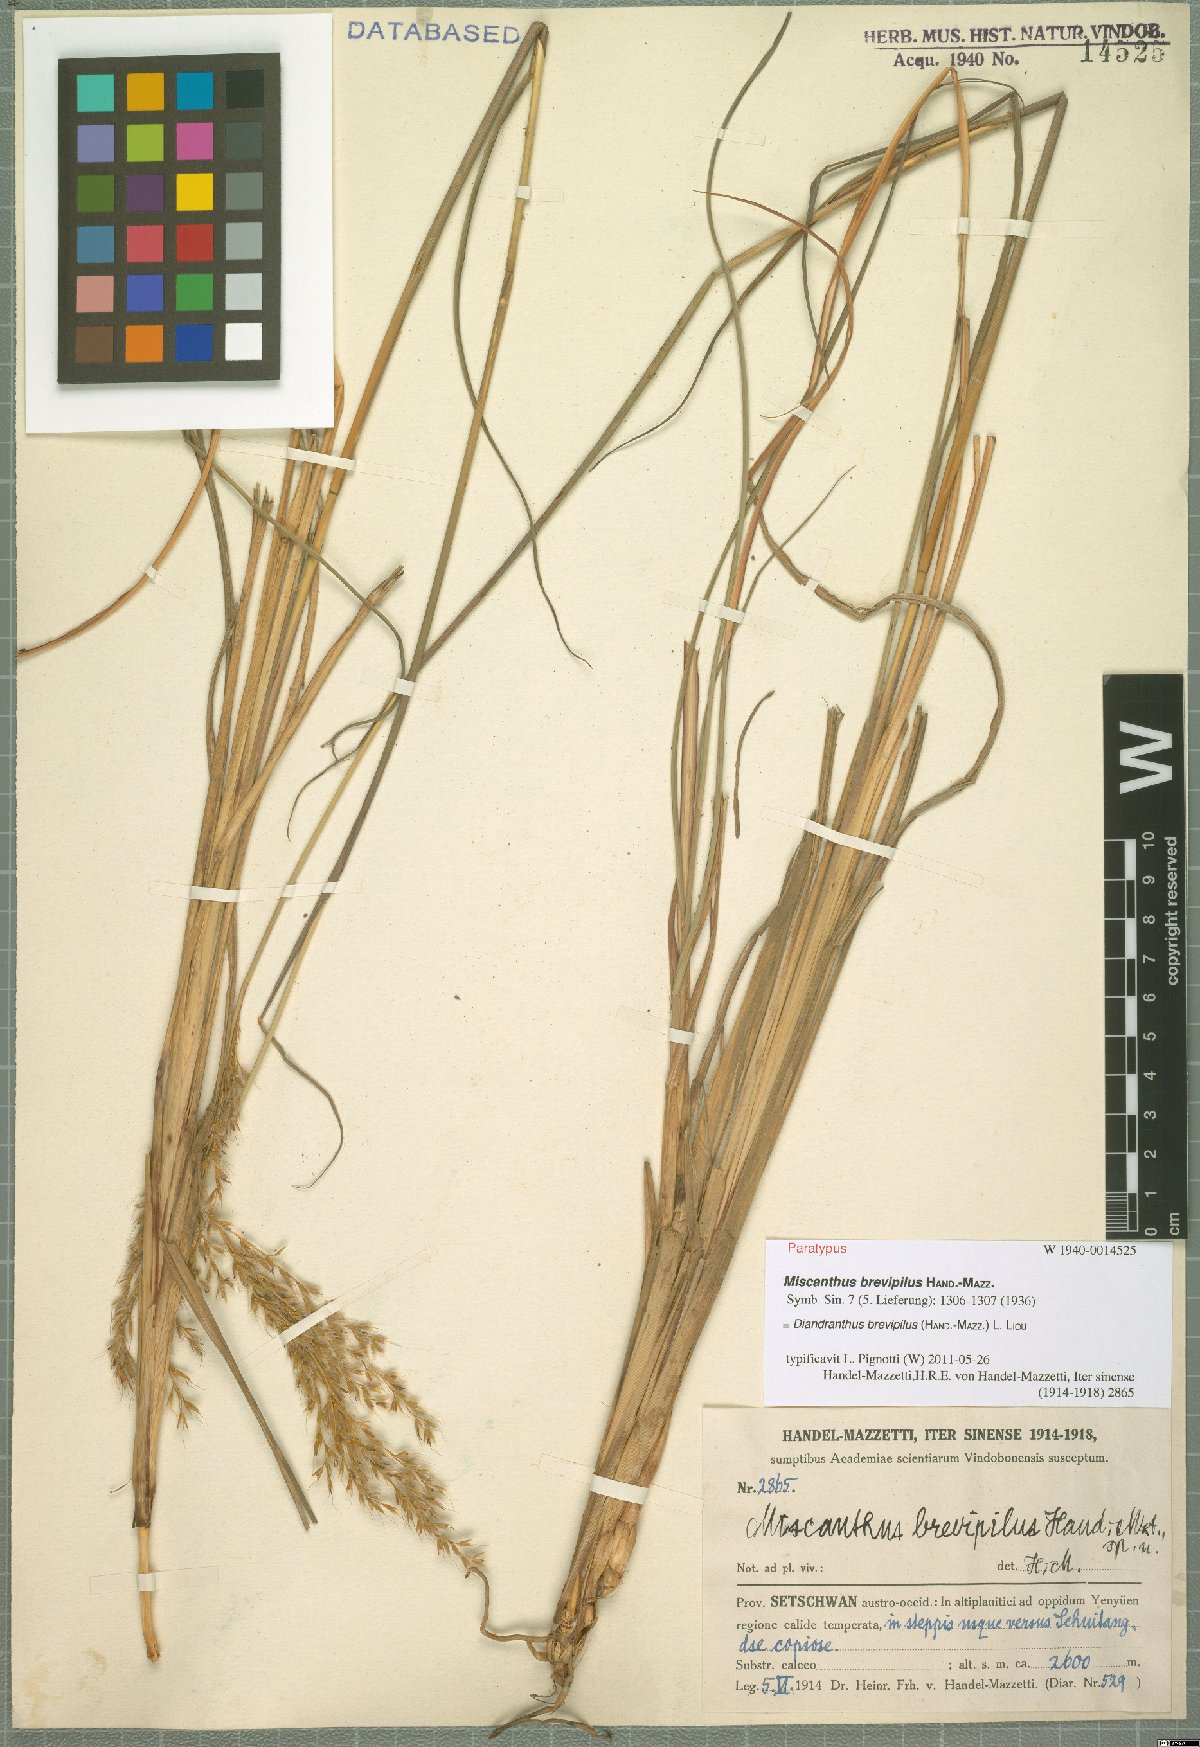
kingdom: Plantae
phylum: Tracheophyta
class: Liliopsida
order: Poales
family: Poaceae
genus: Miscanthus
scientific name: Miscanthus nudipes
